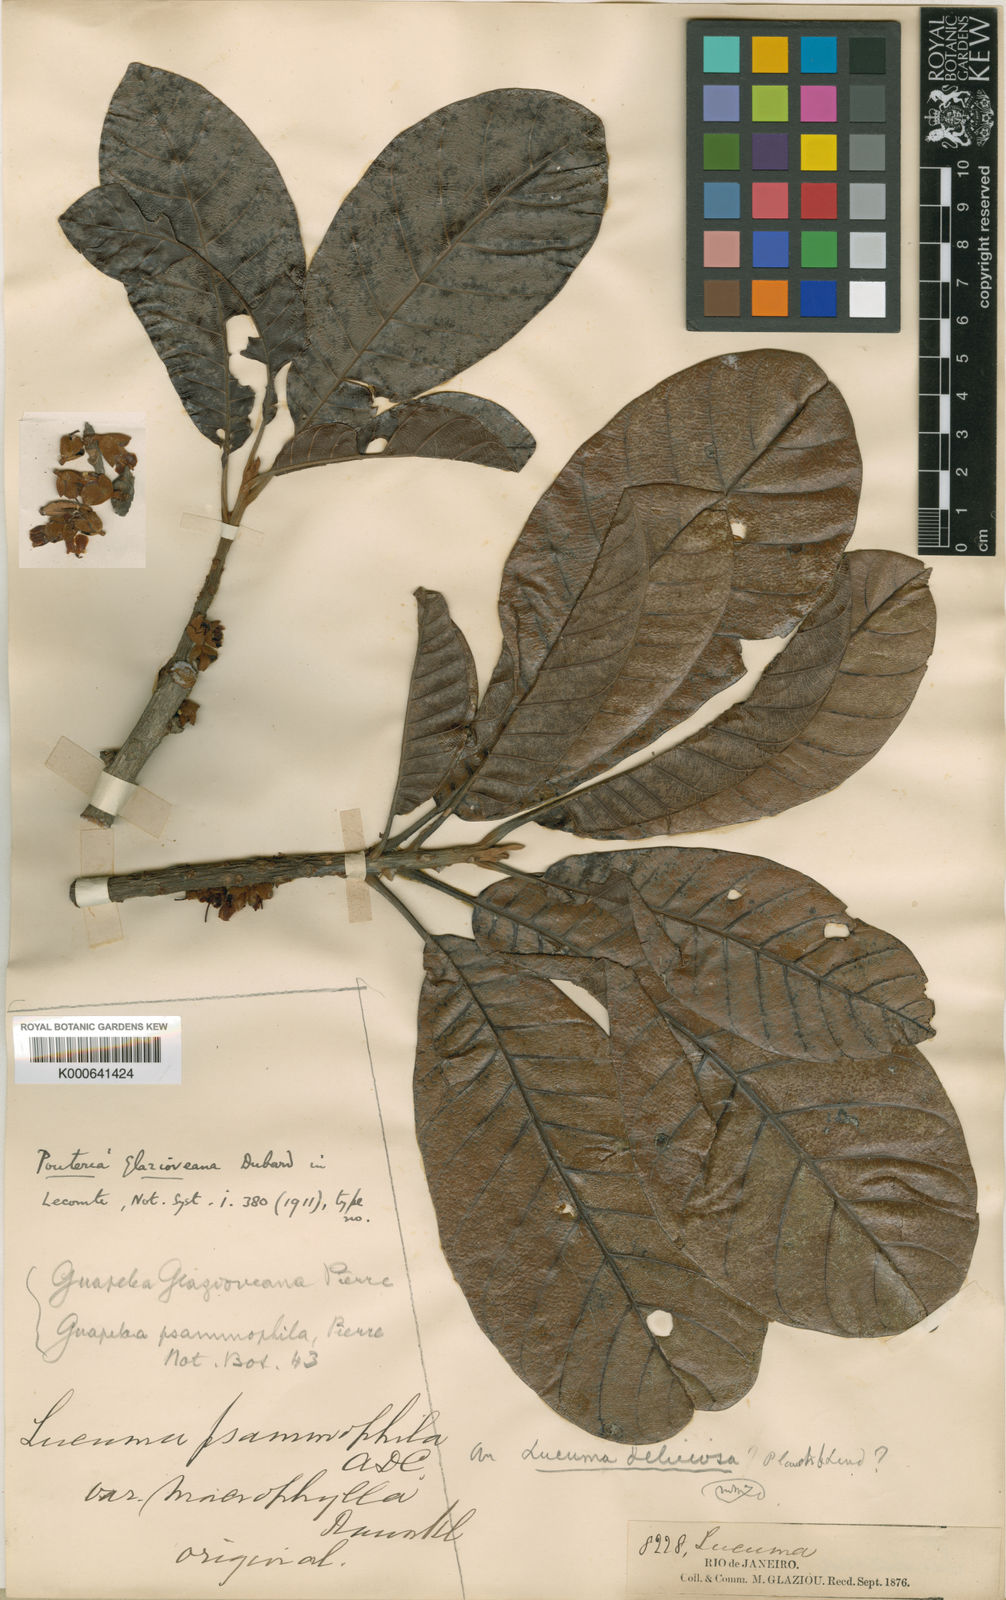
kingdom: Plantae
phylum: Tracheophyta
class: Magnoliopsida
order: Ericales
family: Sapotaceae
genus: Pouteria
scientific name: Pouteria guianensis
